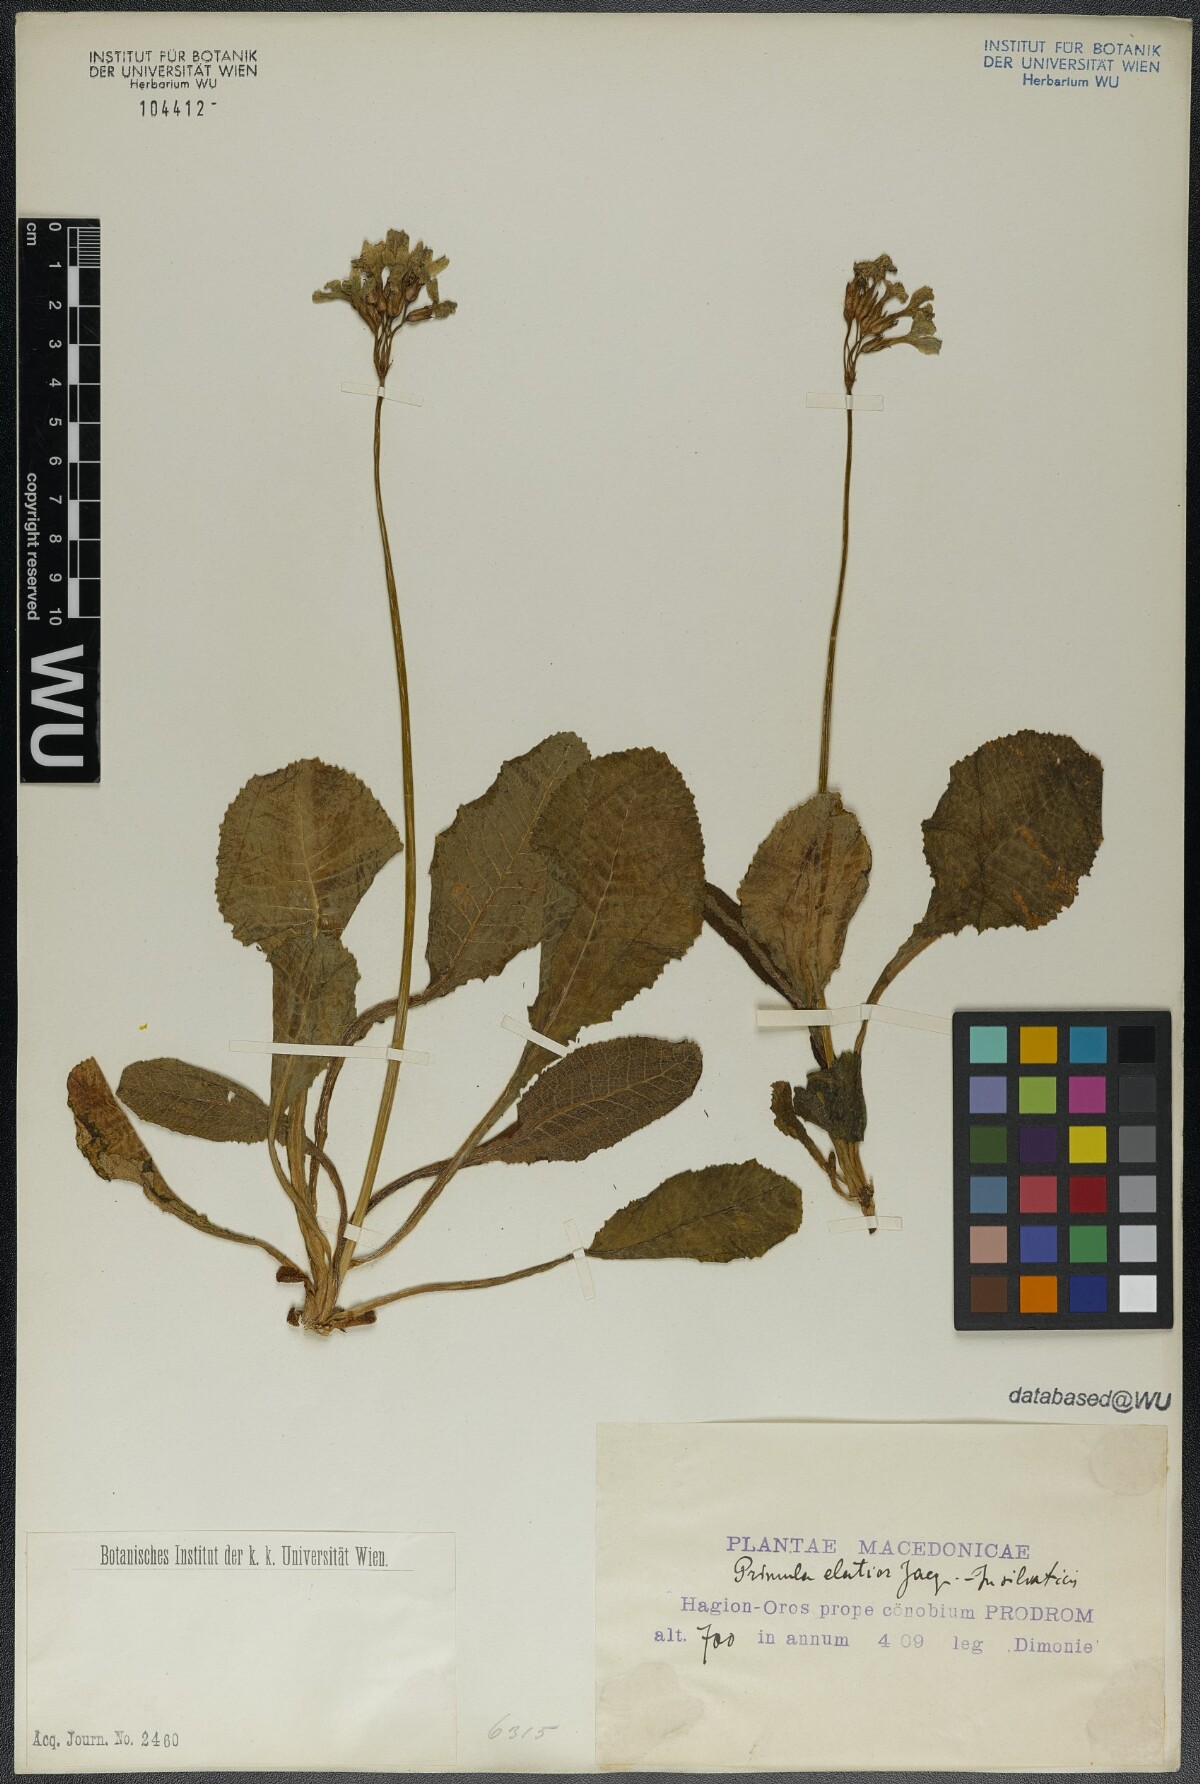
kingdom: Plantae
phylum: Tracheophyta
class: Magnoliopsida
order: Ericales
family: Primulaceae
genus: Primula
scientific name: Primula elatior
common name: Oxlip
